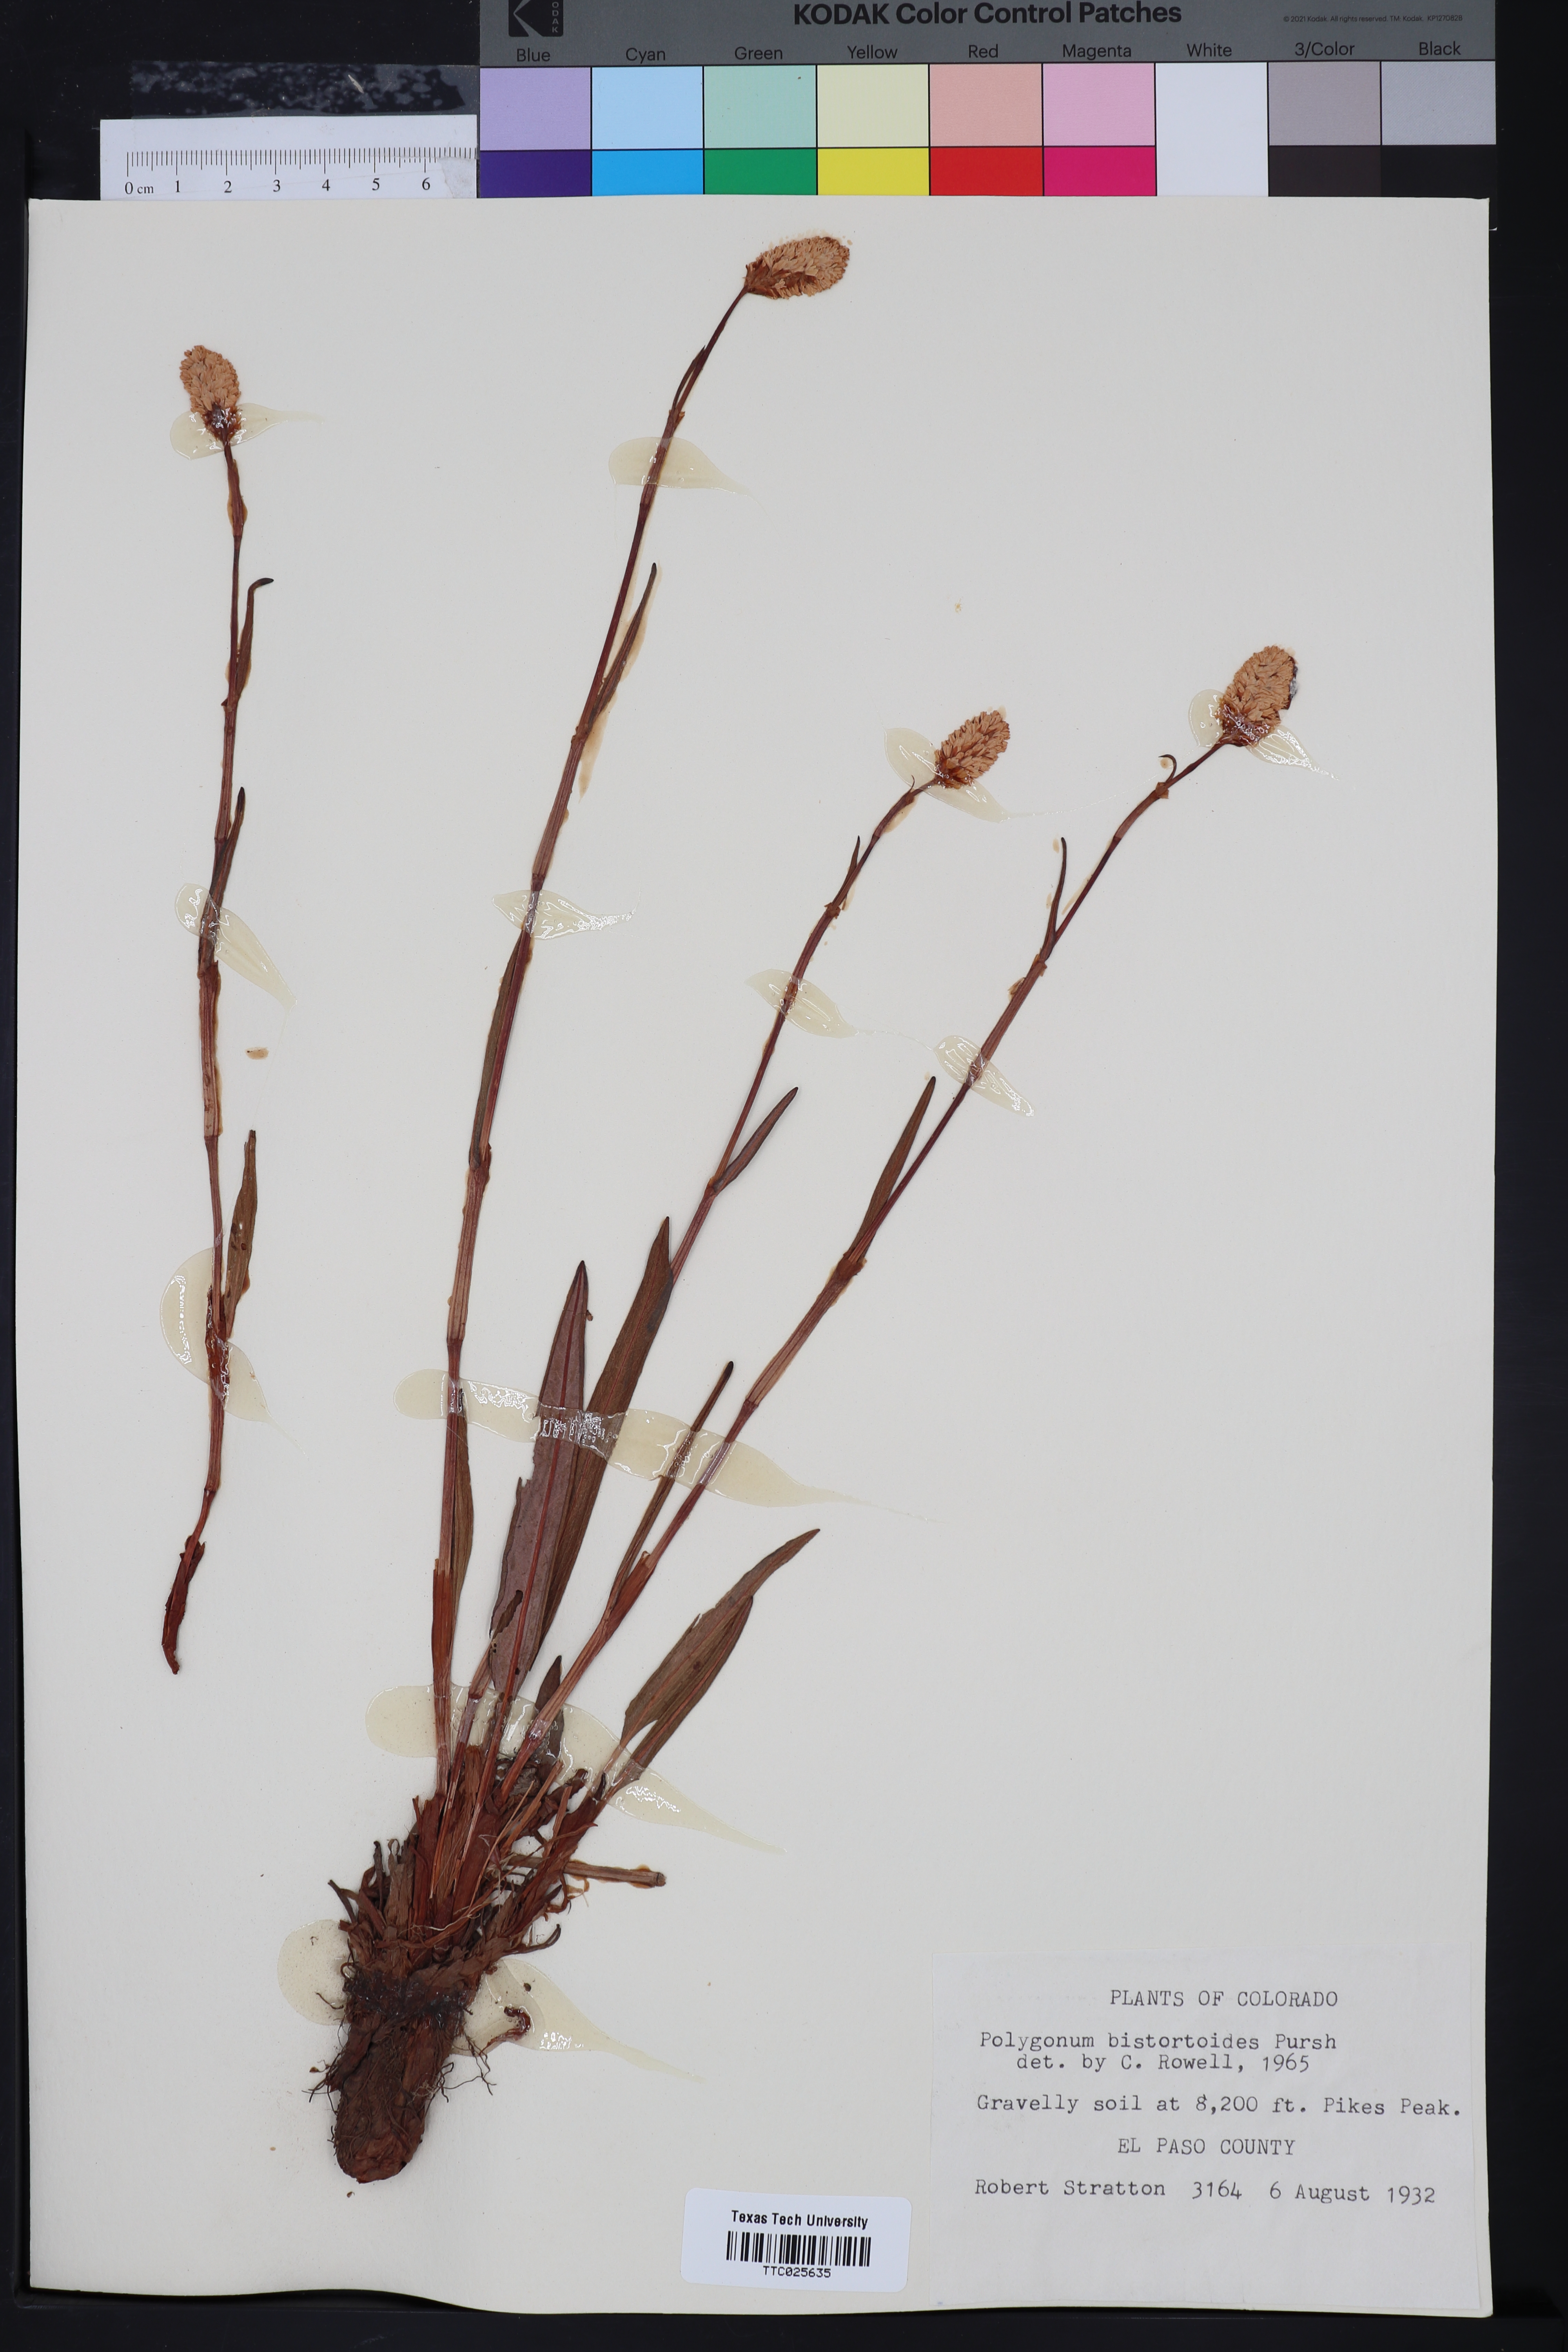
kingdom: Plantae
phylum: Tracheophyta
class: Magnoliopsida
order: Caryophyllales
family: Polygonaceae
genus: Bistorta
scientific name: Bistorta bistortoides
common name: American bistort
